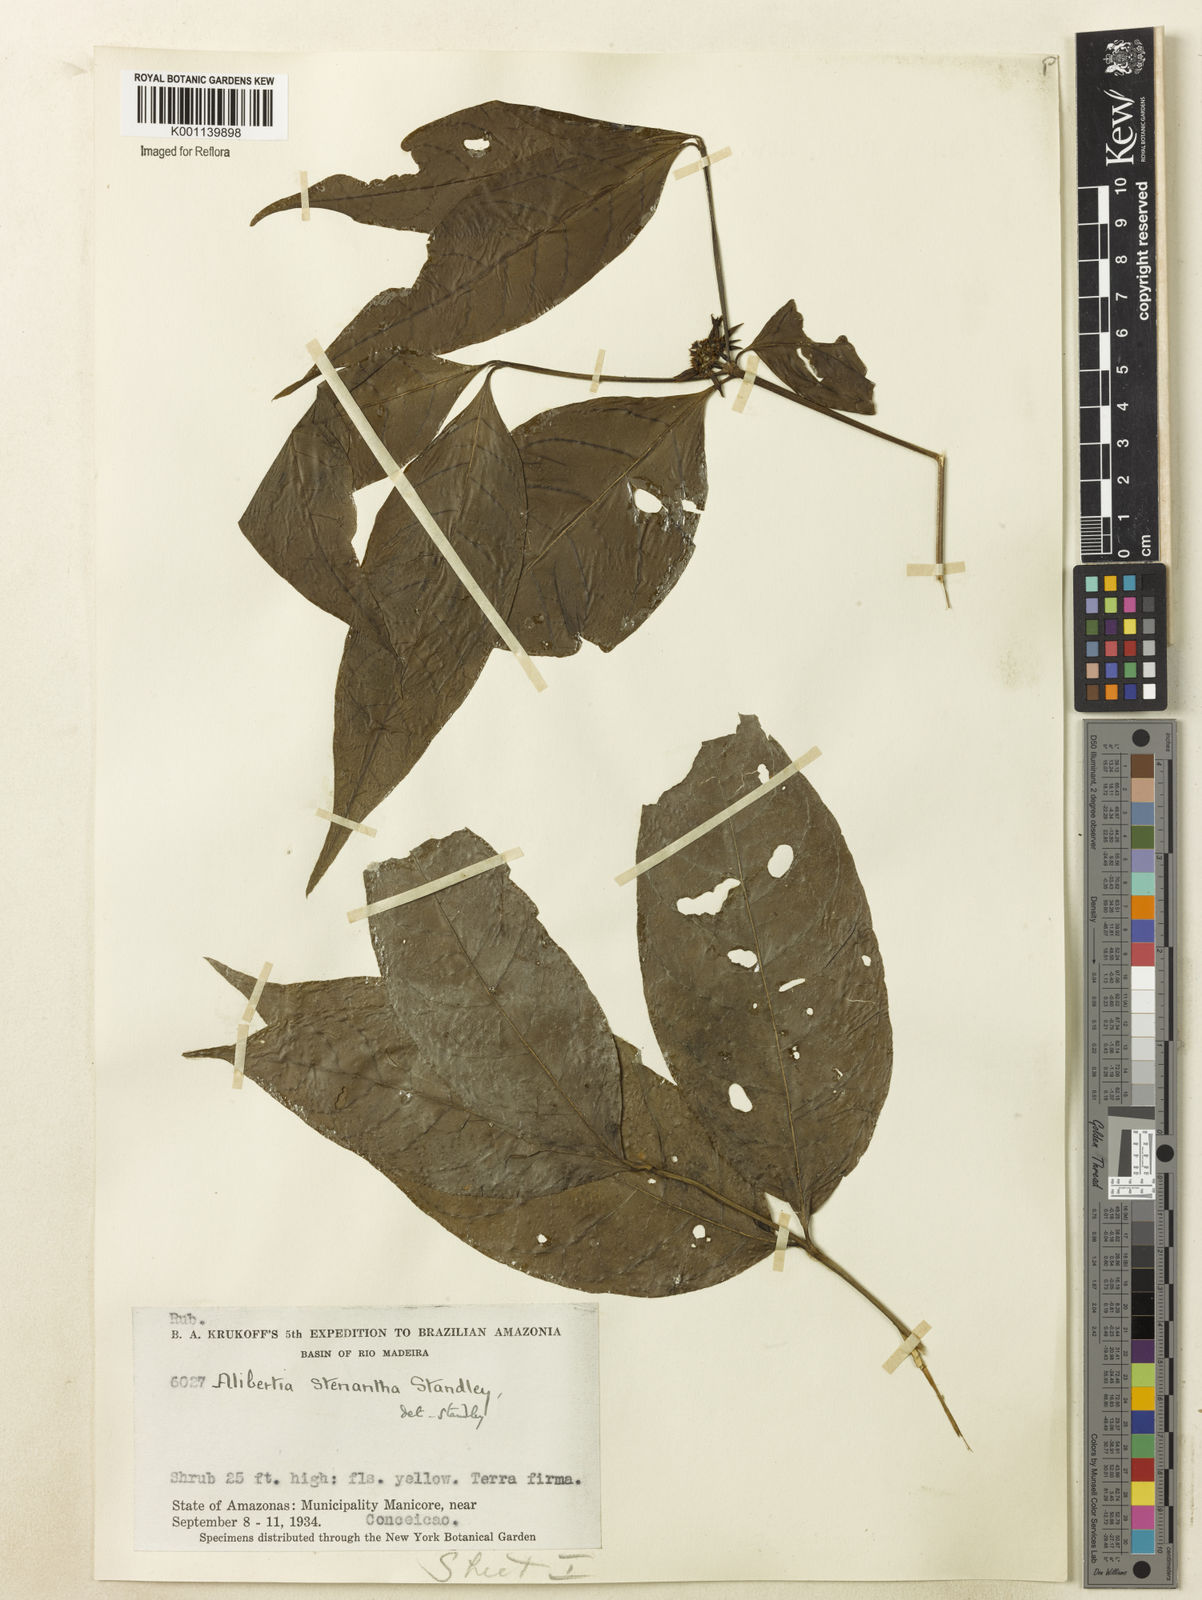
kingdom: Plantae
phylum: Tracheophyta
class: Magnoliopsida
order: Gentianales
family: Rubiaceae
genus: Alibertia
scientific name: Alibertia bertierifolia
